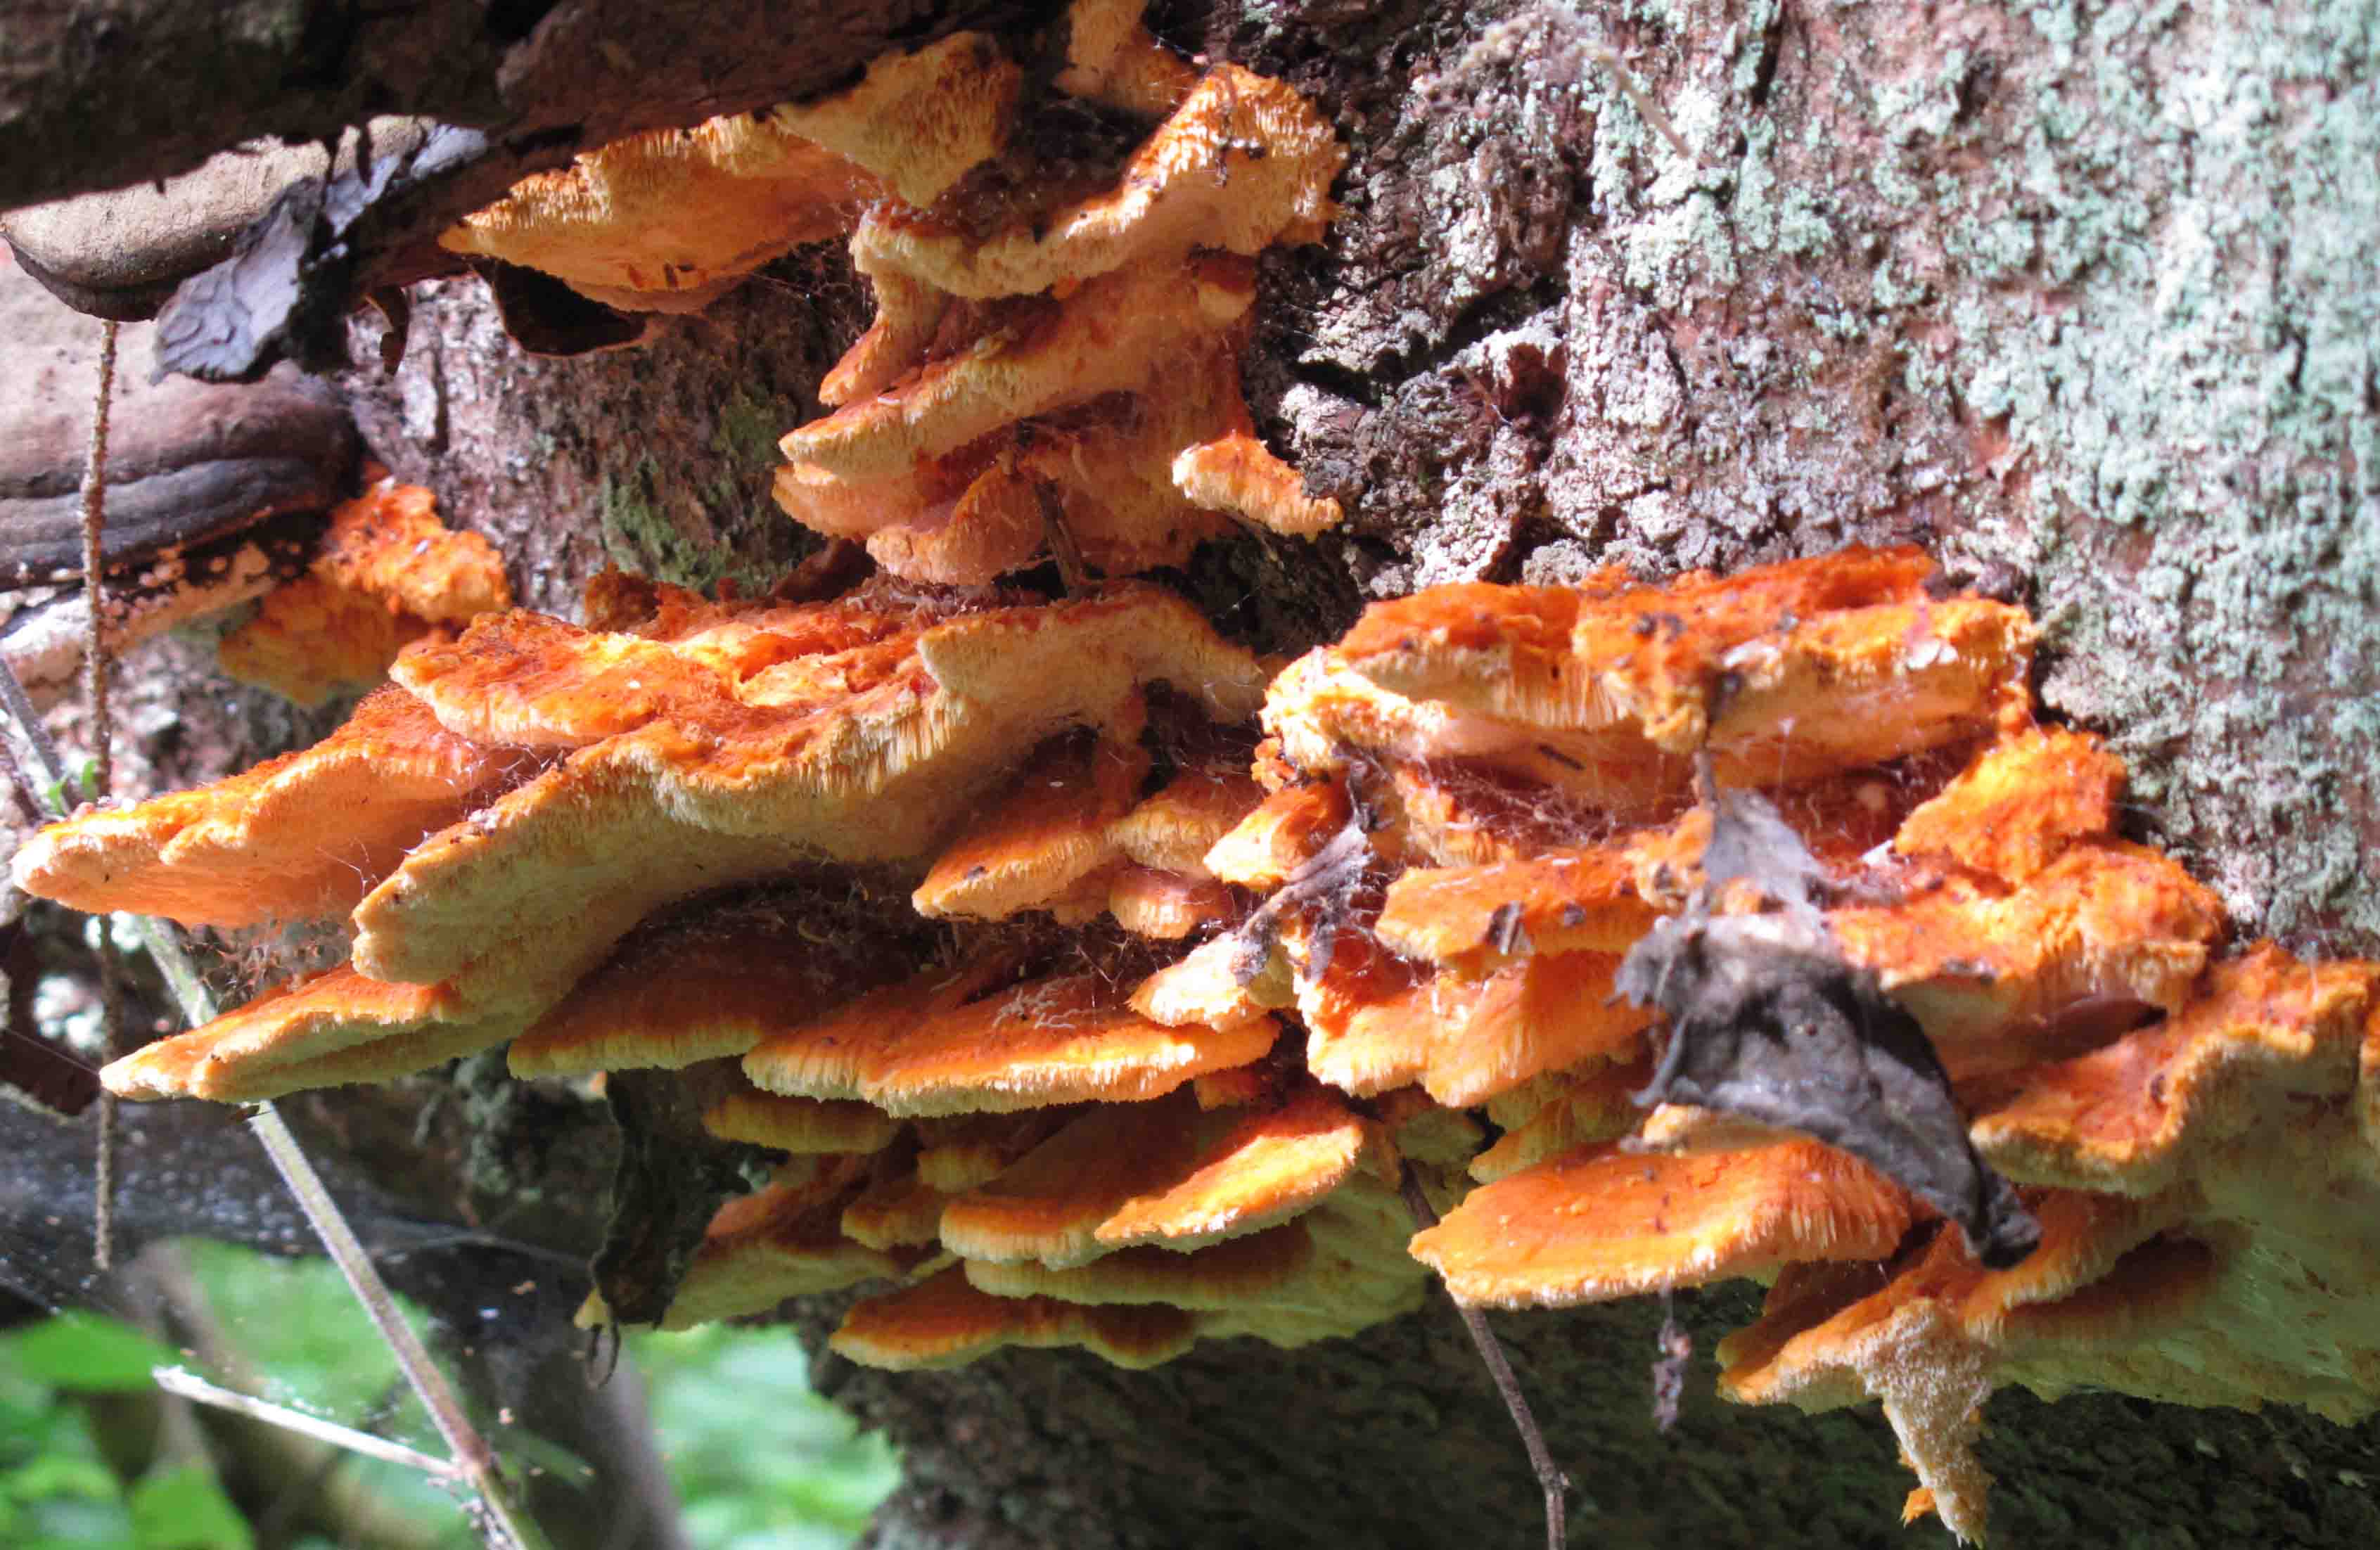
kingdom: Fungi
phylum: Basidiomycota
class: Agaricomycetes
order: Polyporales
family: Pycnoporellaceae
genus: Pycnoporellus
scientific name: Pycnoporellus fulgens
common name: flammeporesvamp
